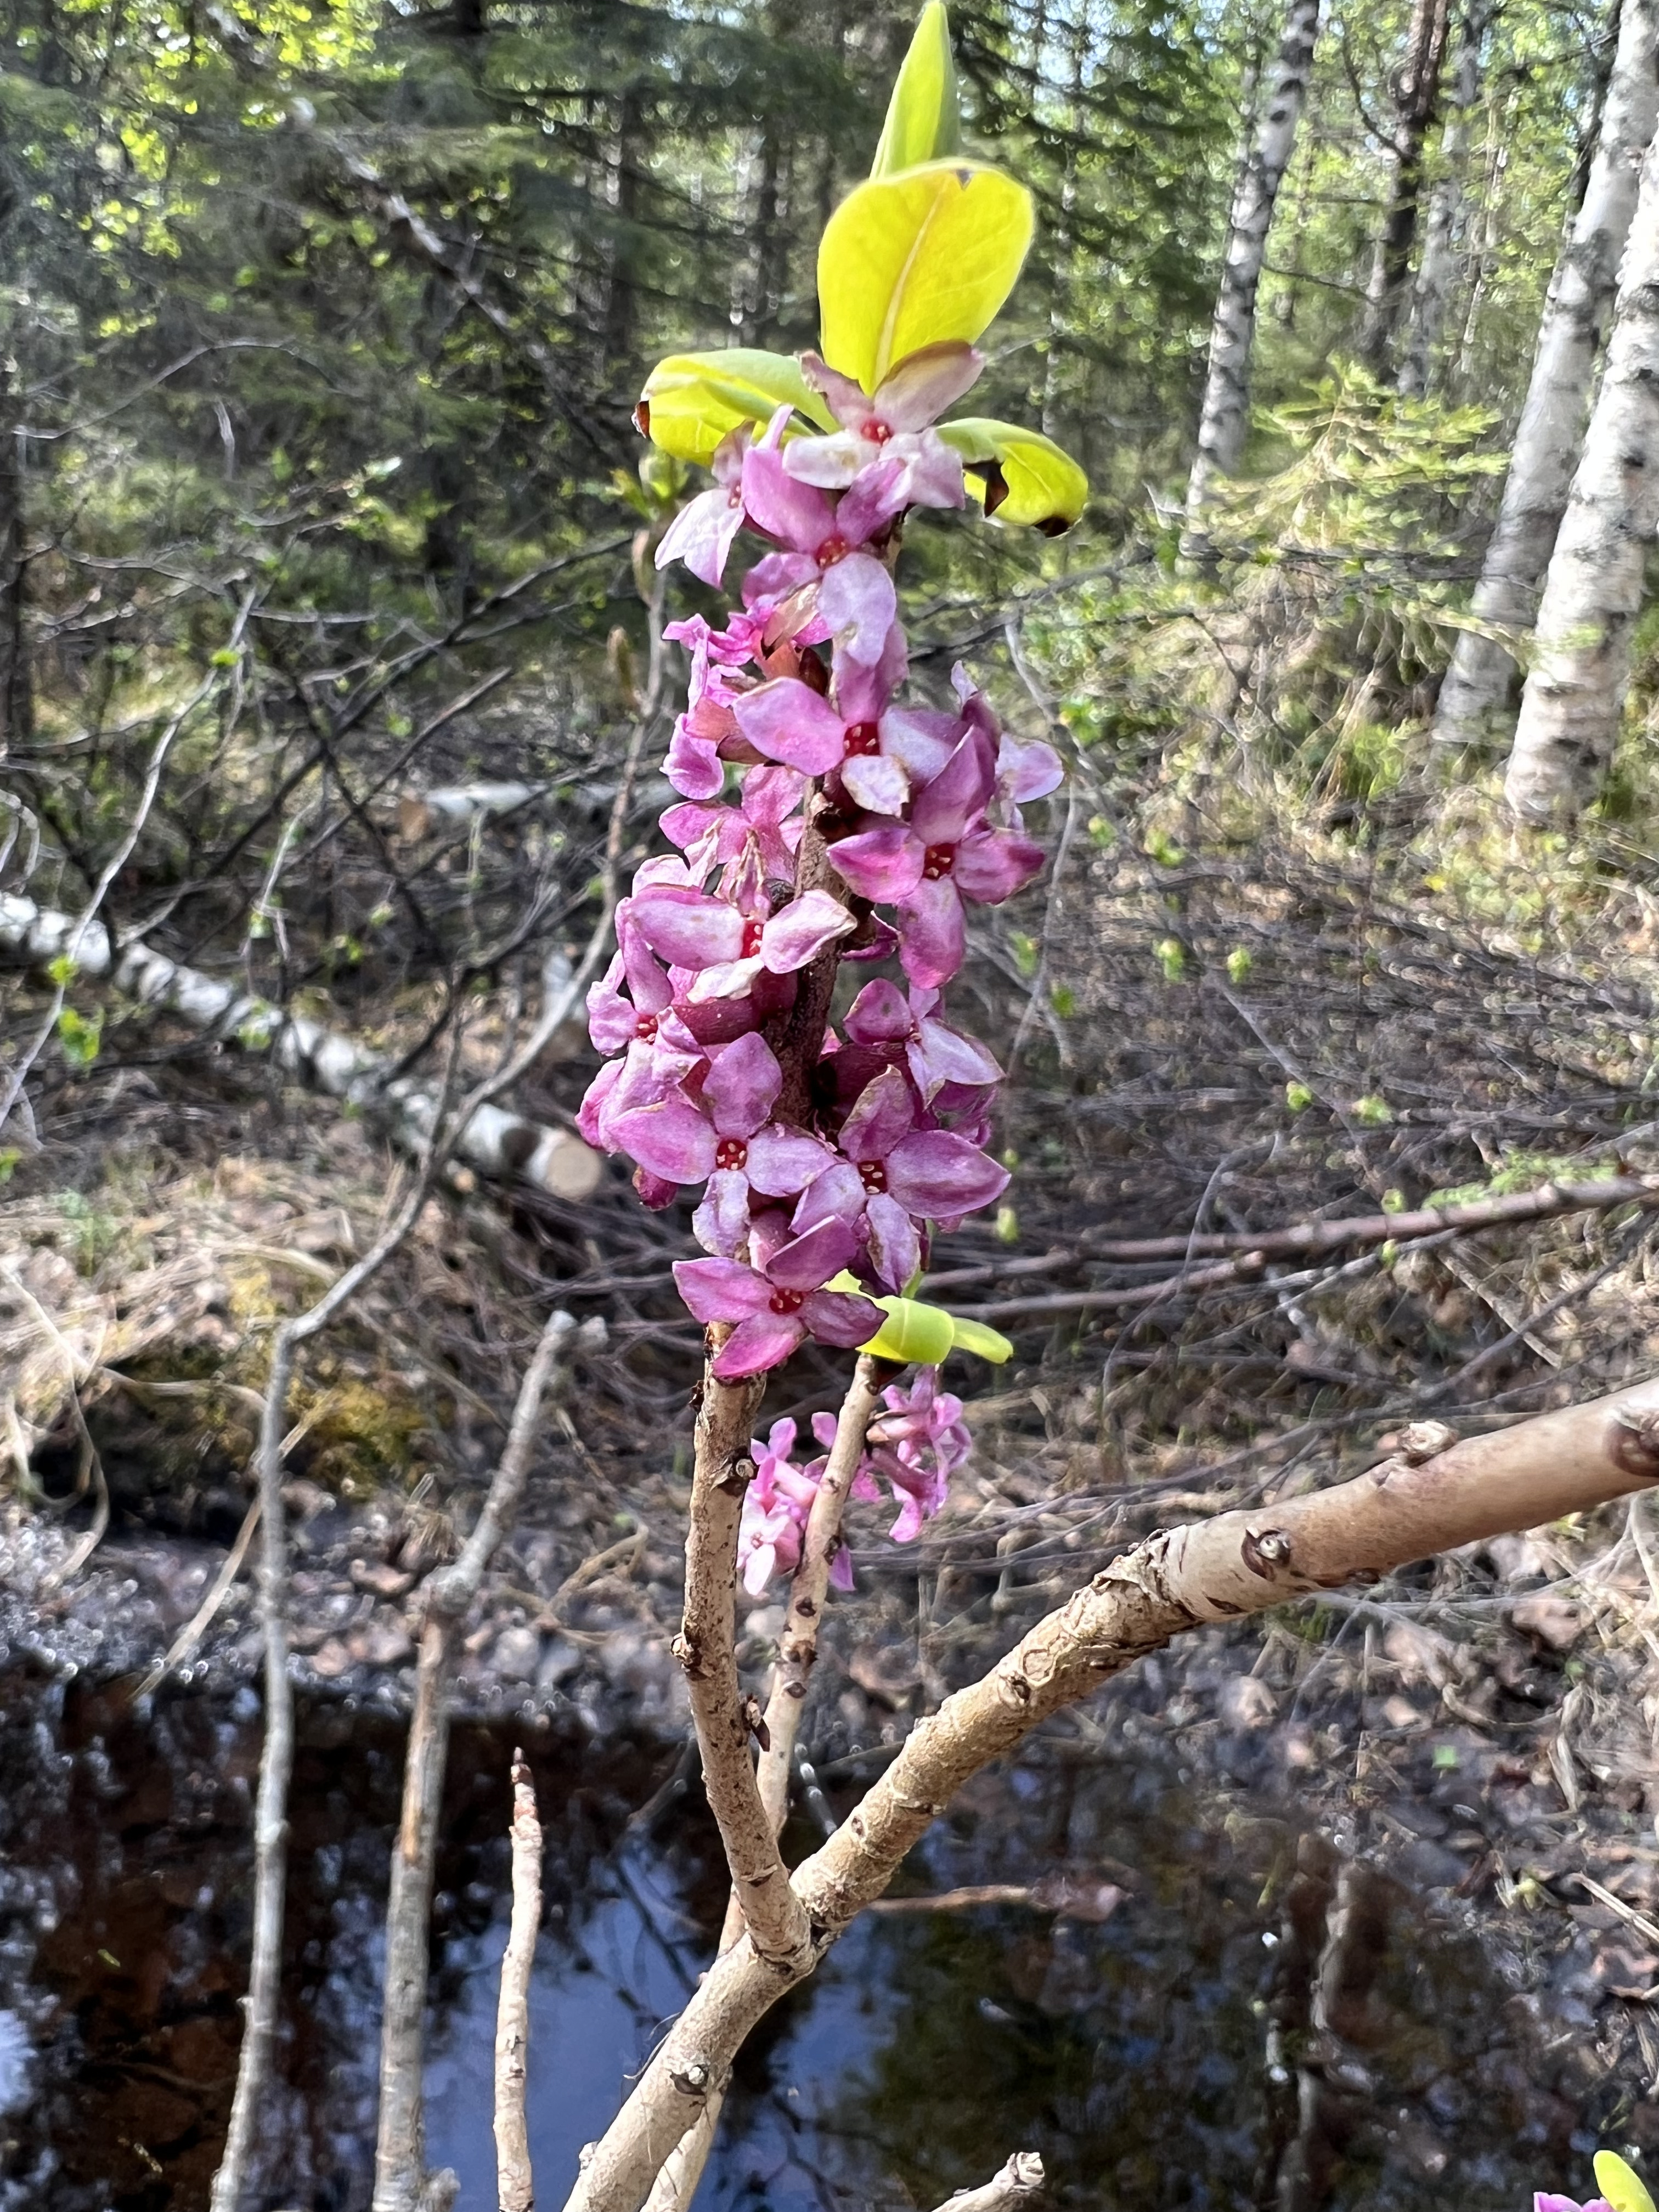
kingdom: Plantae
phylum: Tracheophyta
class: Magnoliopsida
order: Malvales
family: Thymelaeaceae
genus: Daphne
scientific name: Daphne mezereum
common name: Mezereon
